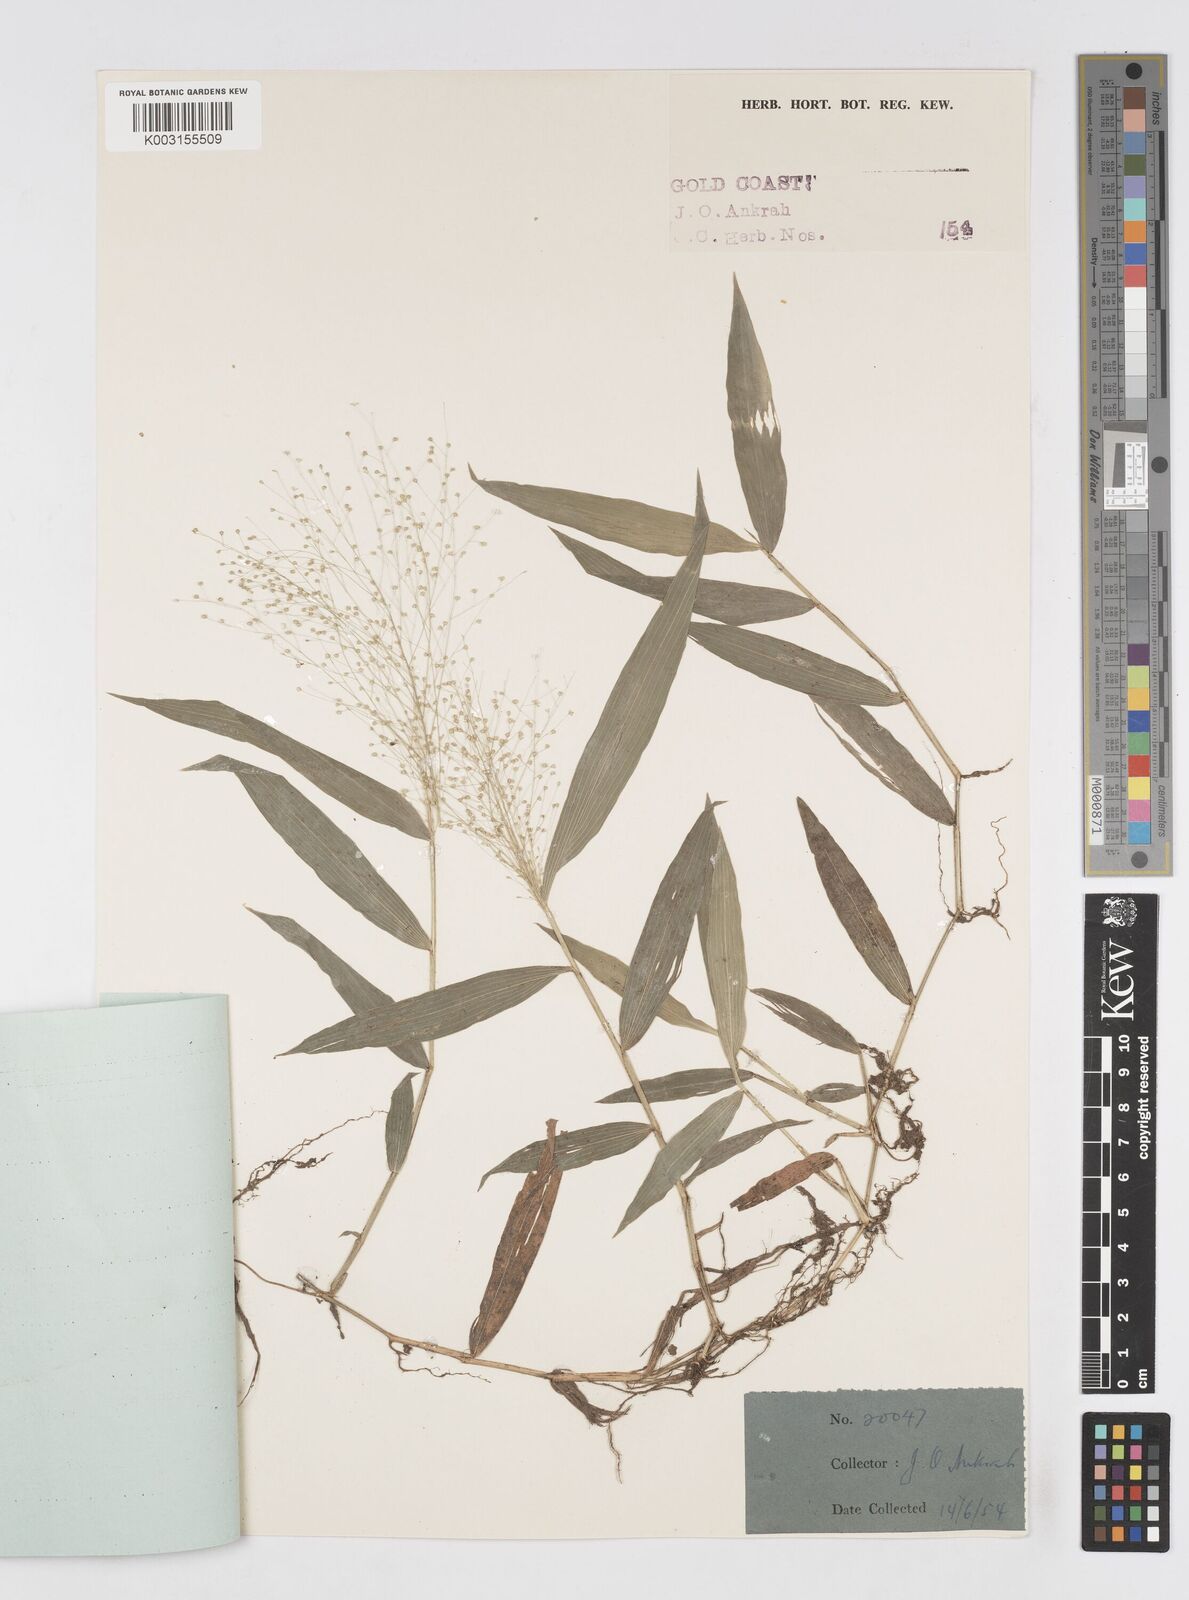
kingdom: Plantae
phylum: Tracheophyta
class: Liliopsida
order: Poales
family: Poaceae
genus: Isachne
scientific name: Isachne albens
